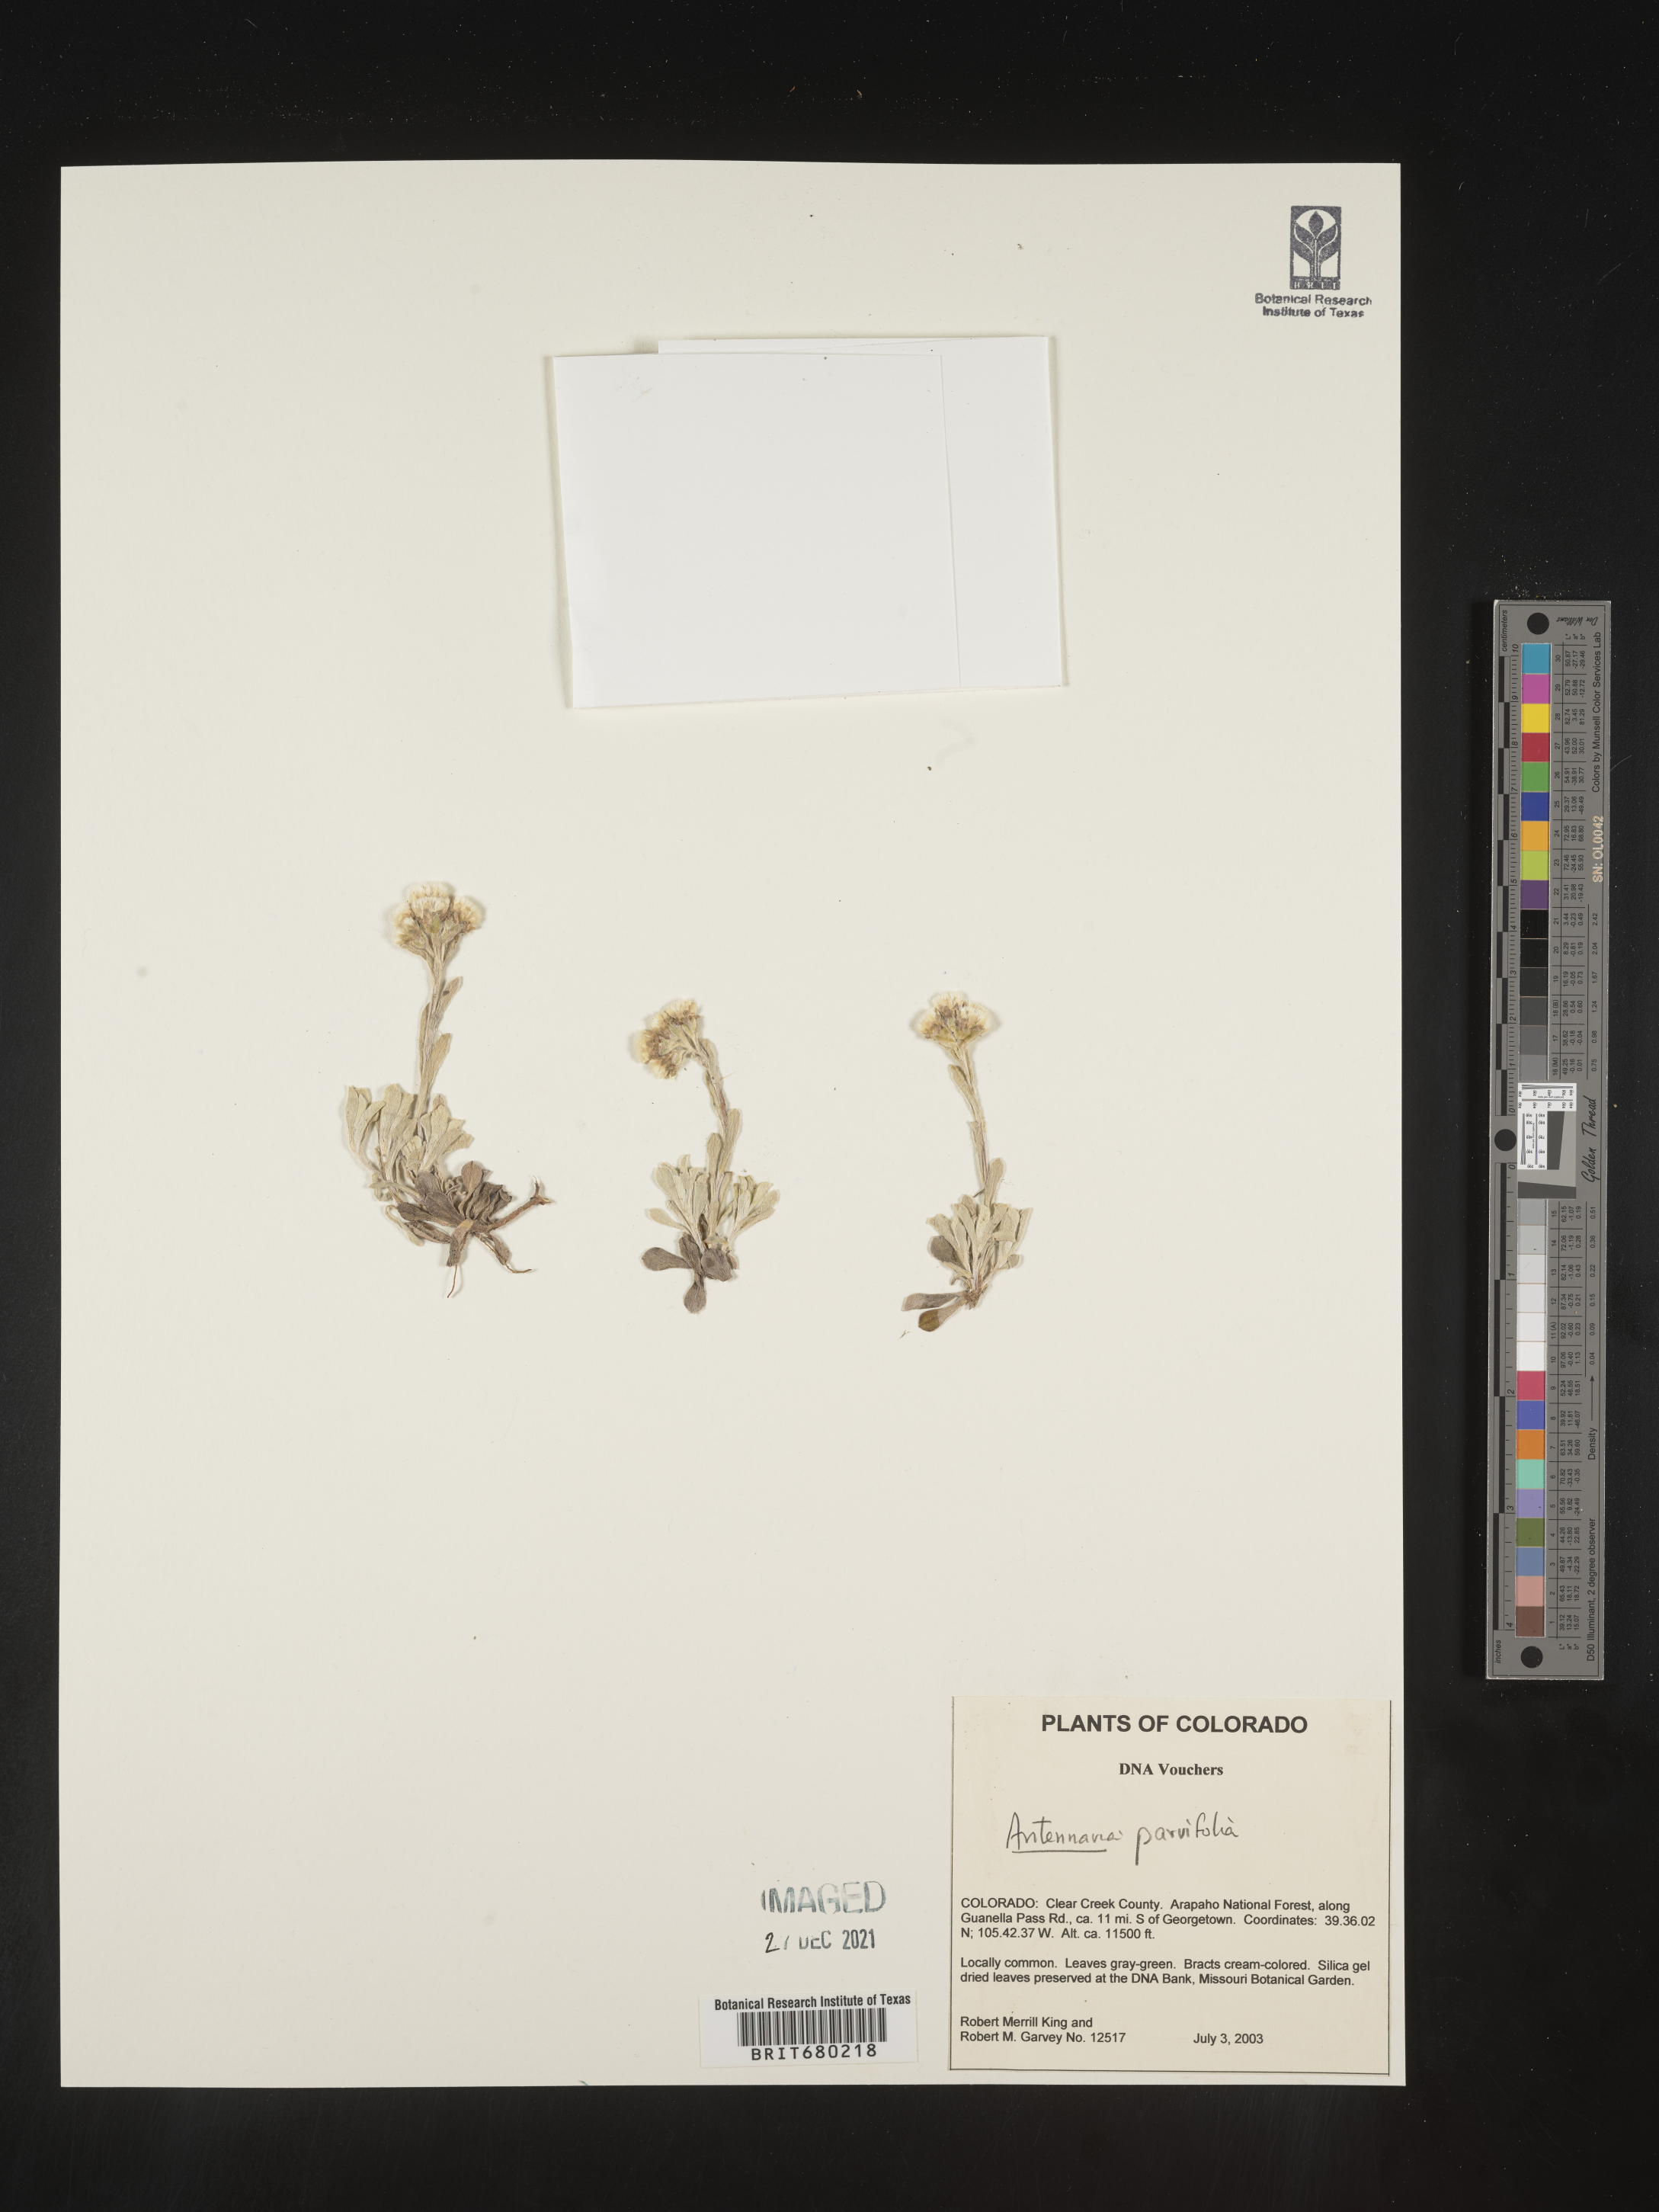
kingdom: Plantae
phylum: Tracheophyta
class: Magnoliopsida
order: Asterales
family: Asteraceae
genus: Antennaria
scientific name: Antennaria plantaginifolia
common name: Plantain-leaved pussytoes
